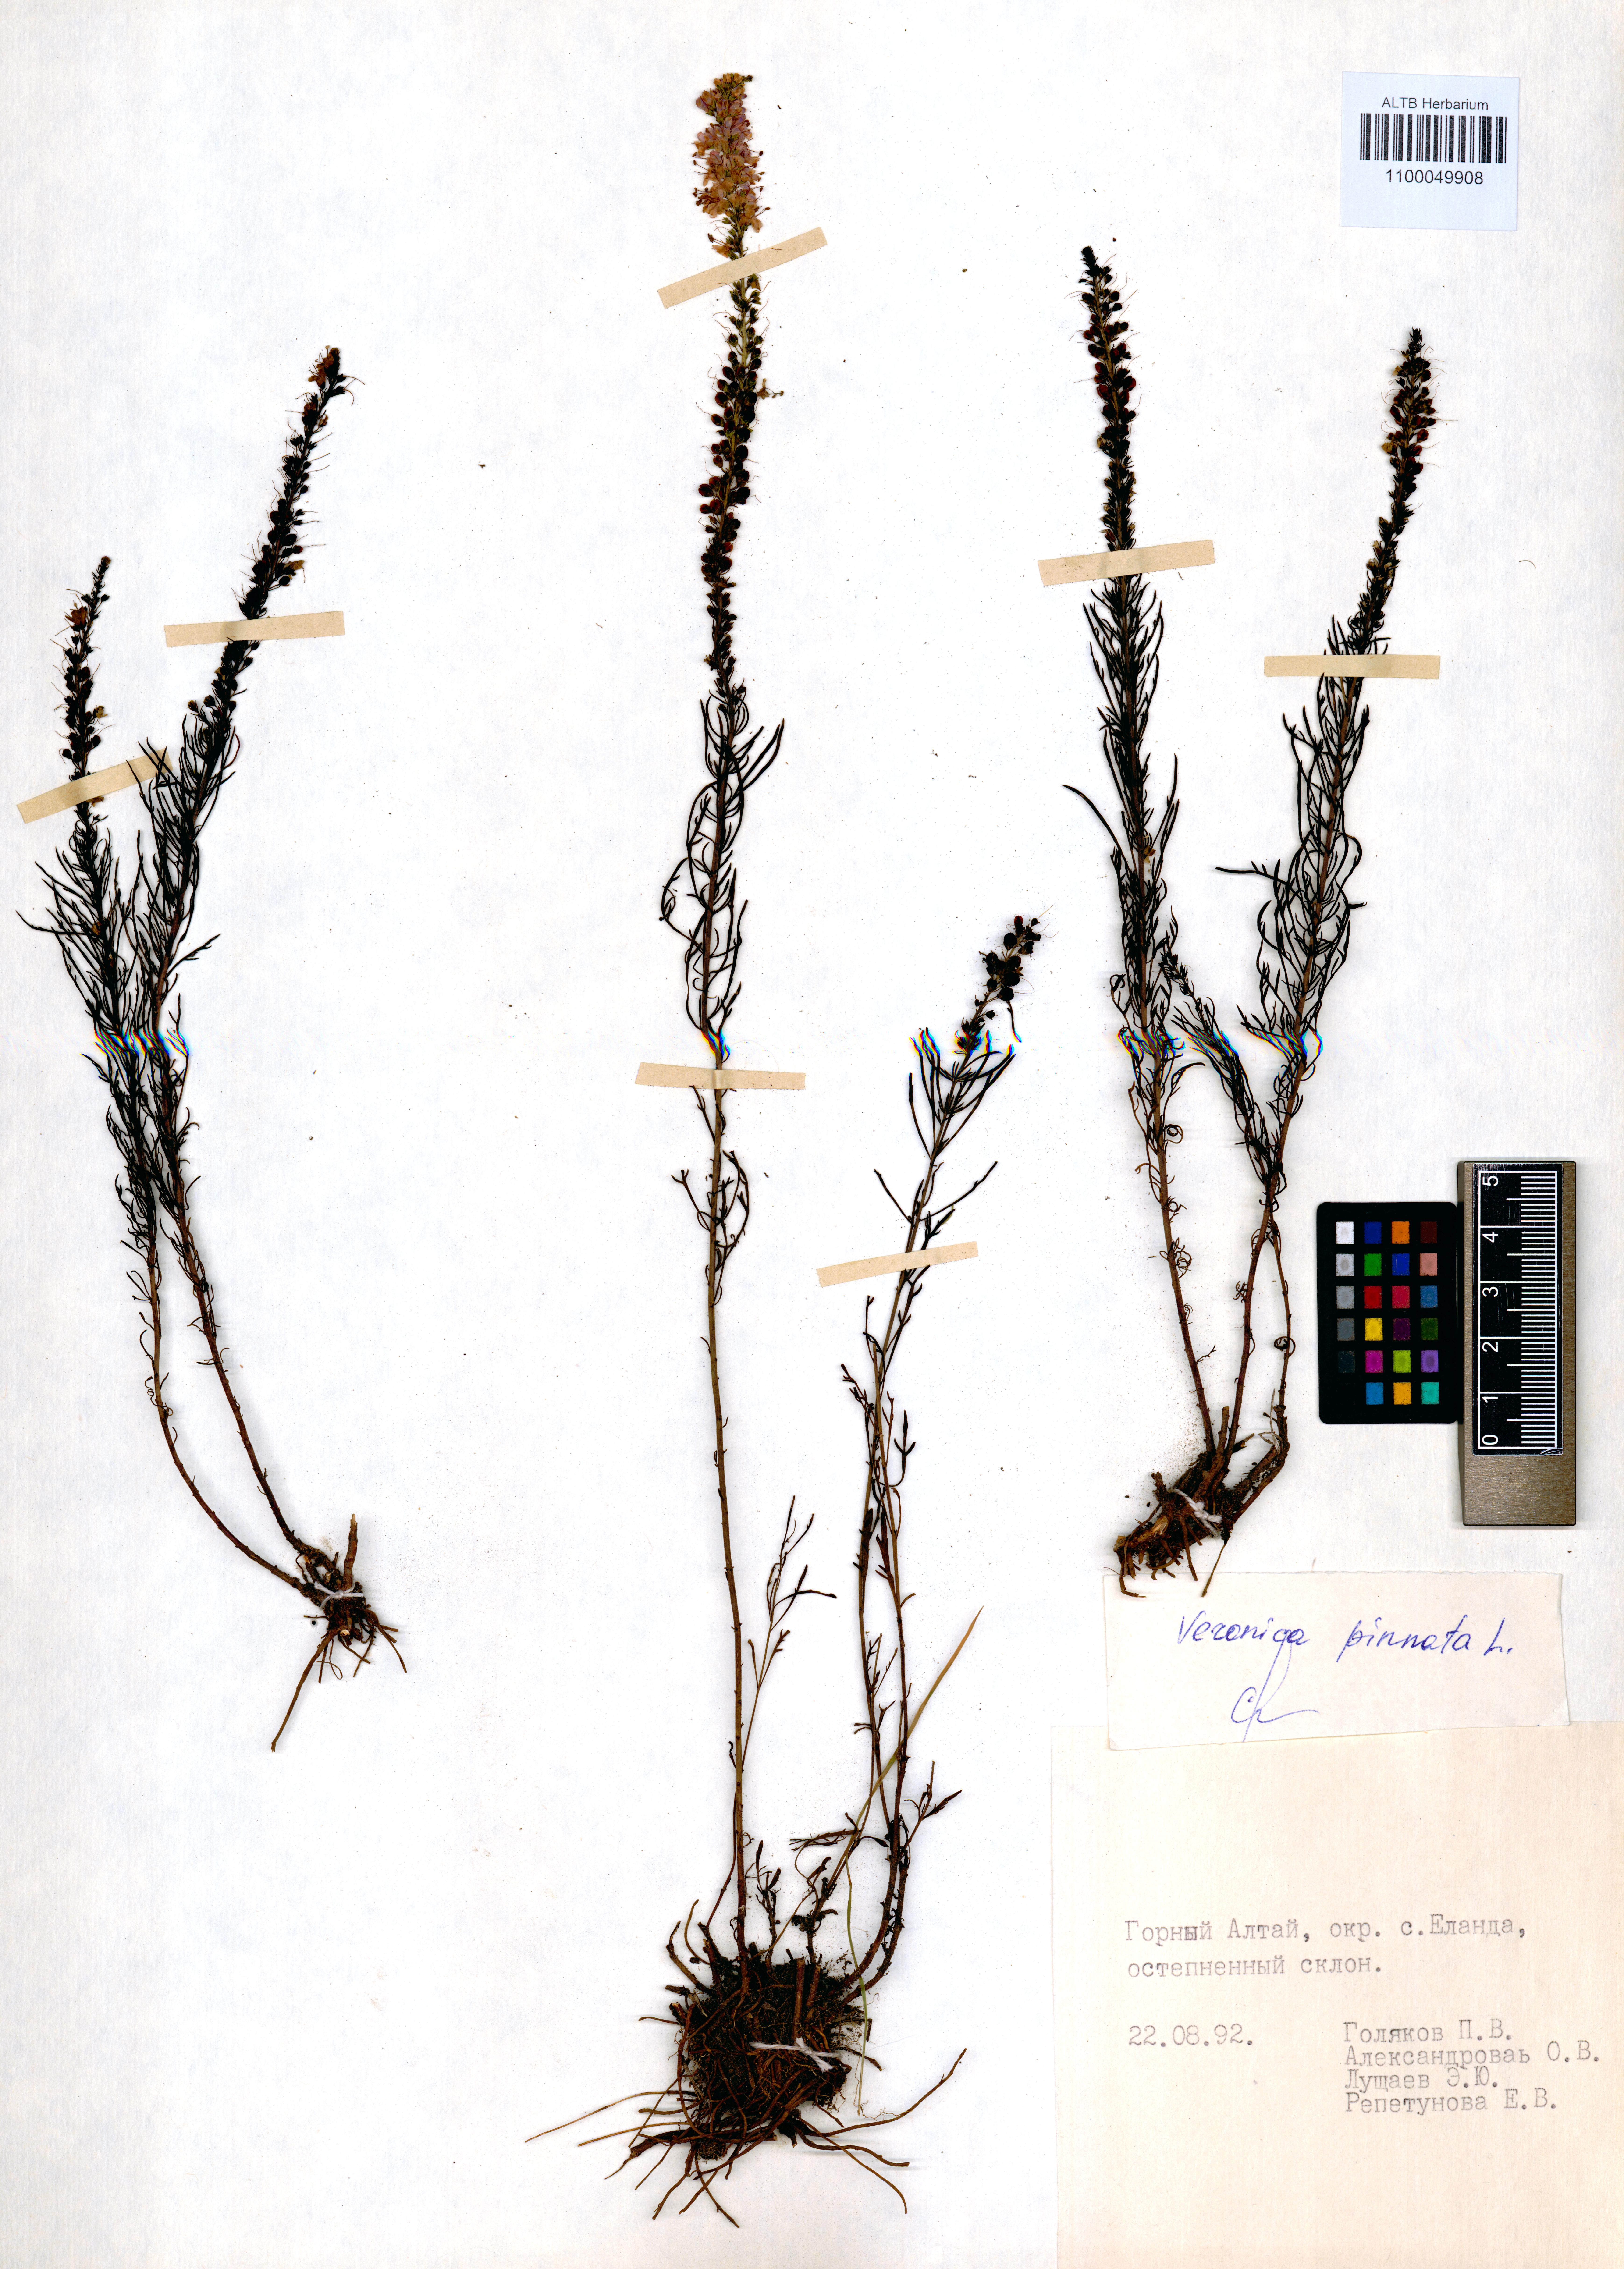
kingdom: Plantae
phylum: Tracheophyta
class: Magnoliopsida
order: Lamiales
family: Plantaginaceae
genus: Veronica
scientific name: Veronica pinnata
